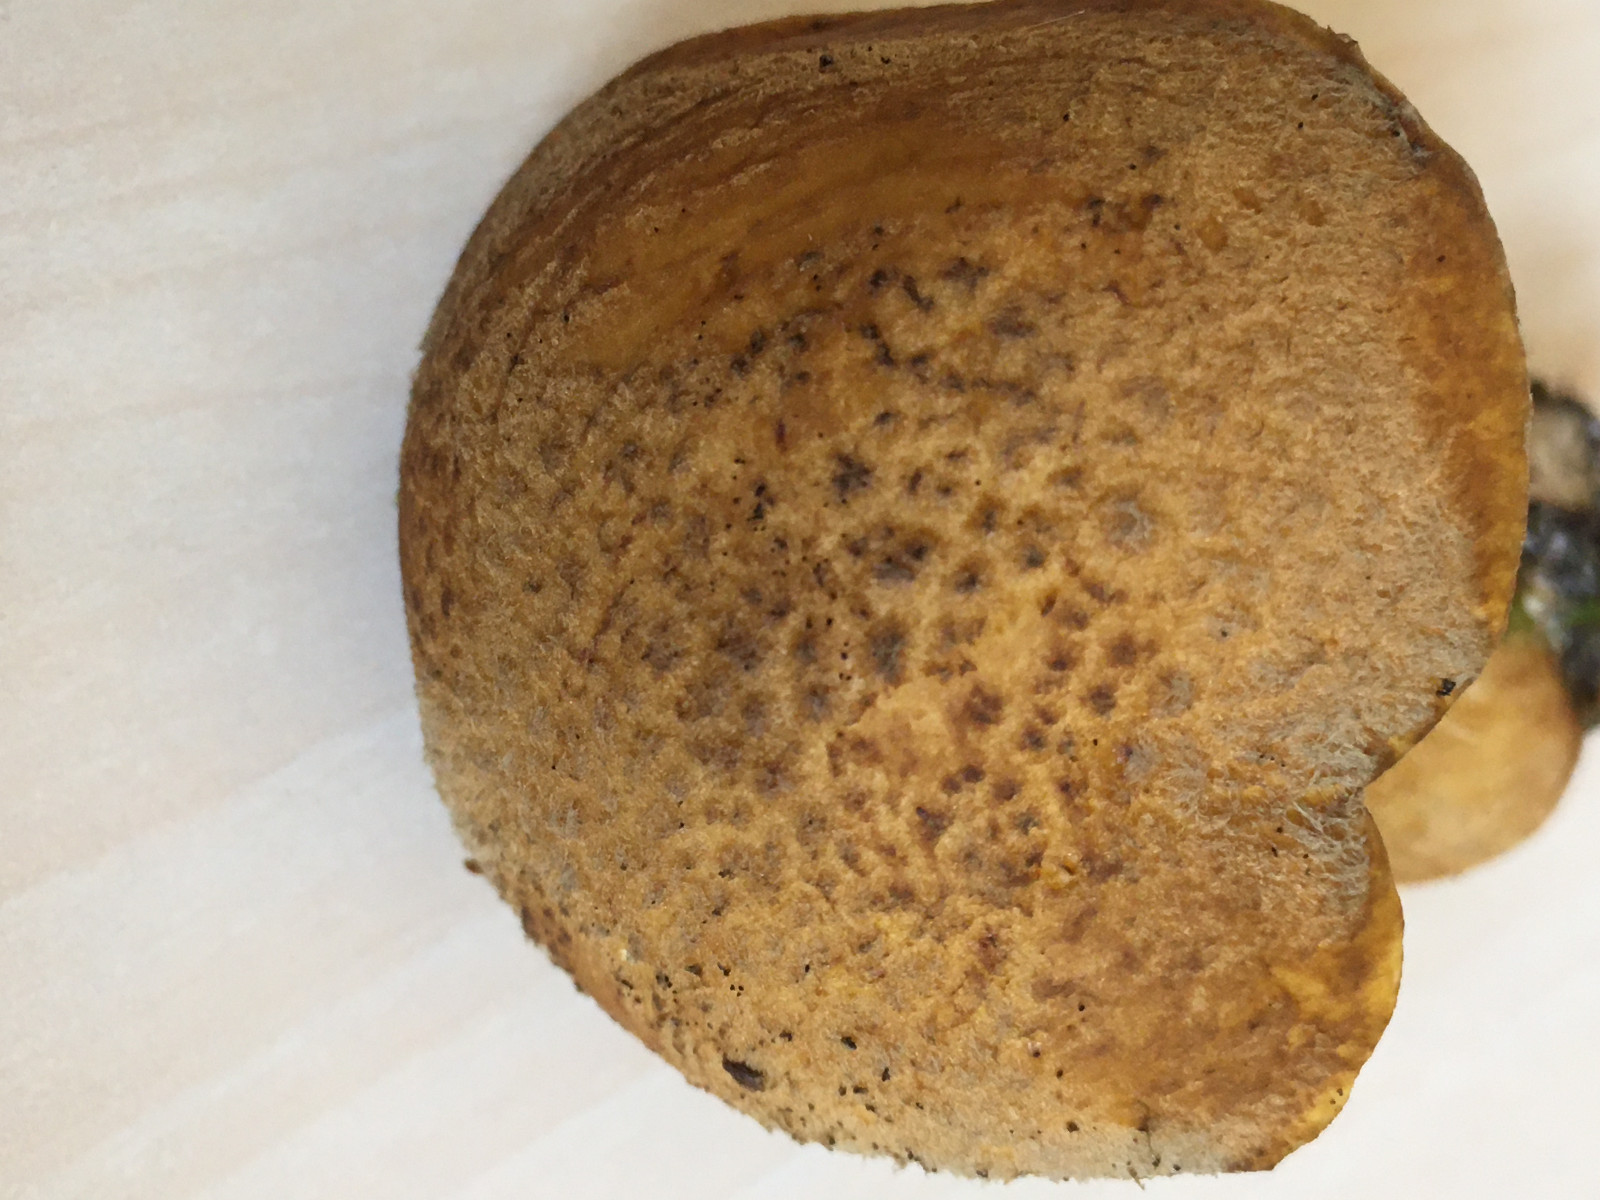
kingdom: Fungi
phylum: Basidiomycota
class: Agaricomycetes
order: Boletales
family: Suillaceae
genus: Suillus
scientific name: Suillus variegatus
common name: broget slimrørhat
